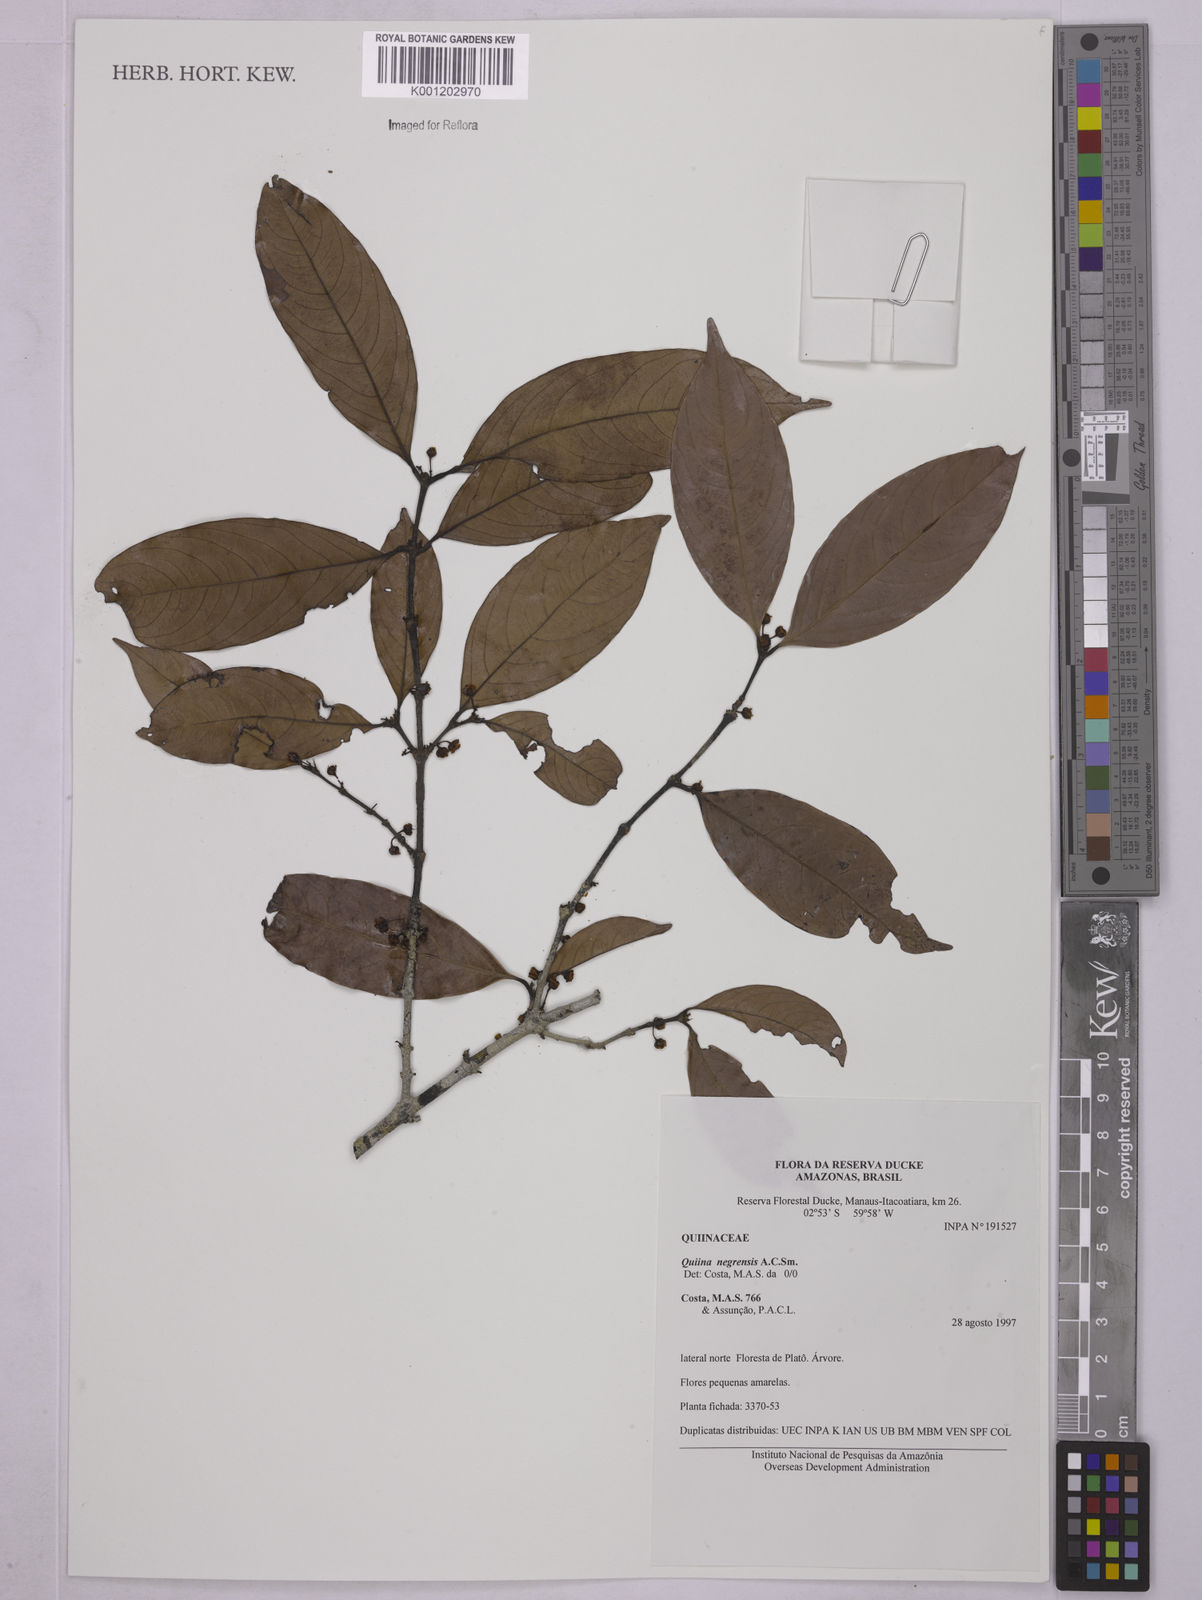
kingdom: Plantae
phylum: Tracheophyta
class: Magnoliopsida
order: Malpighiales
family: Quiinaceae
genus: Quiina
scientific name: Quiina negrensis
